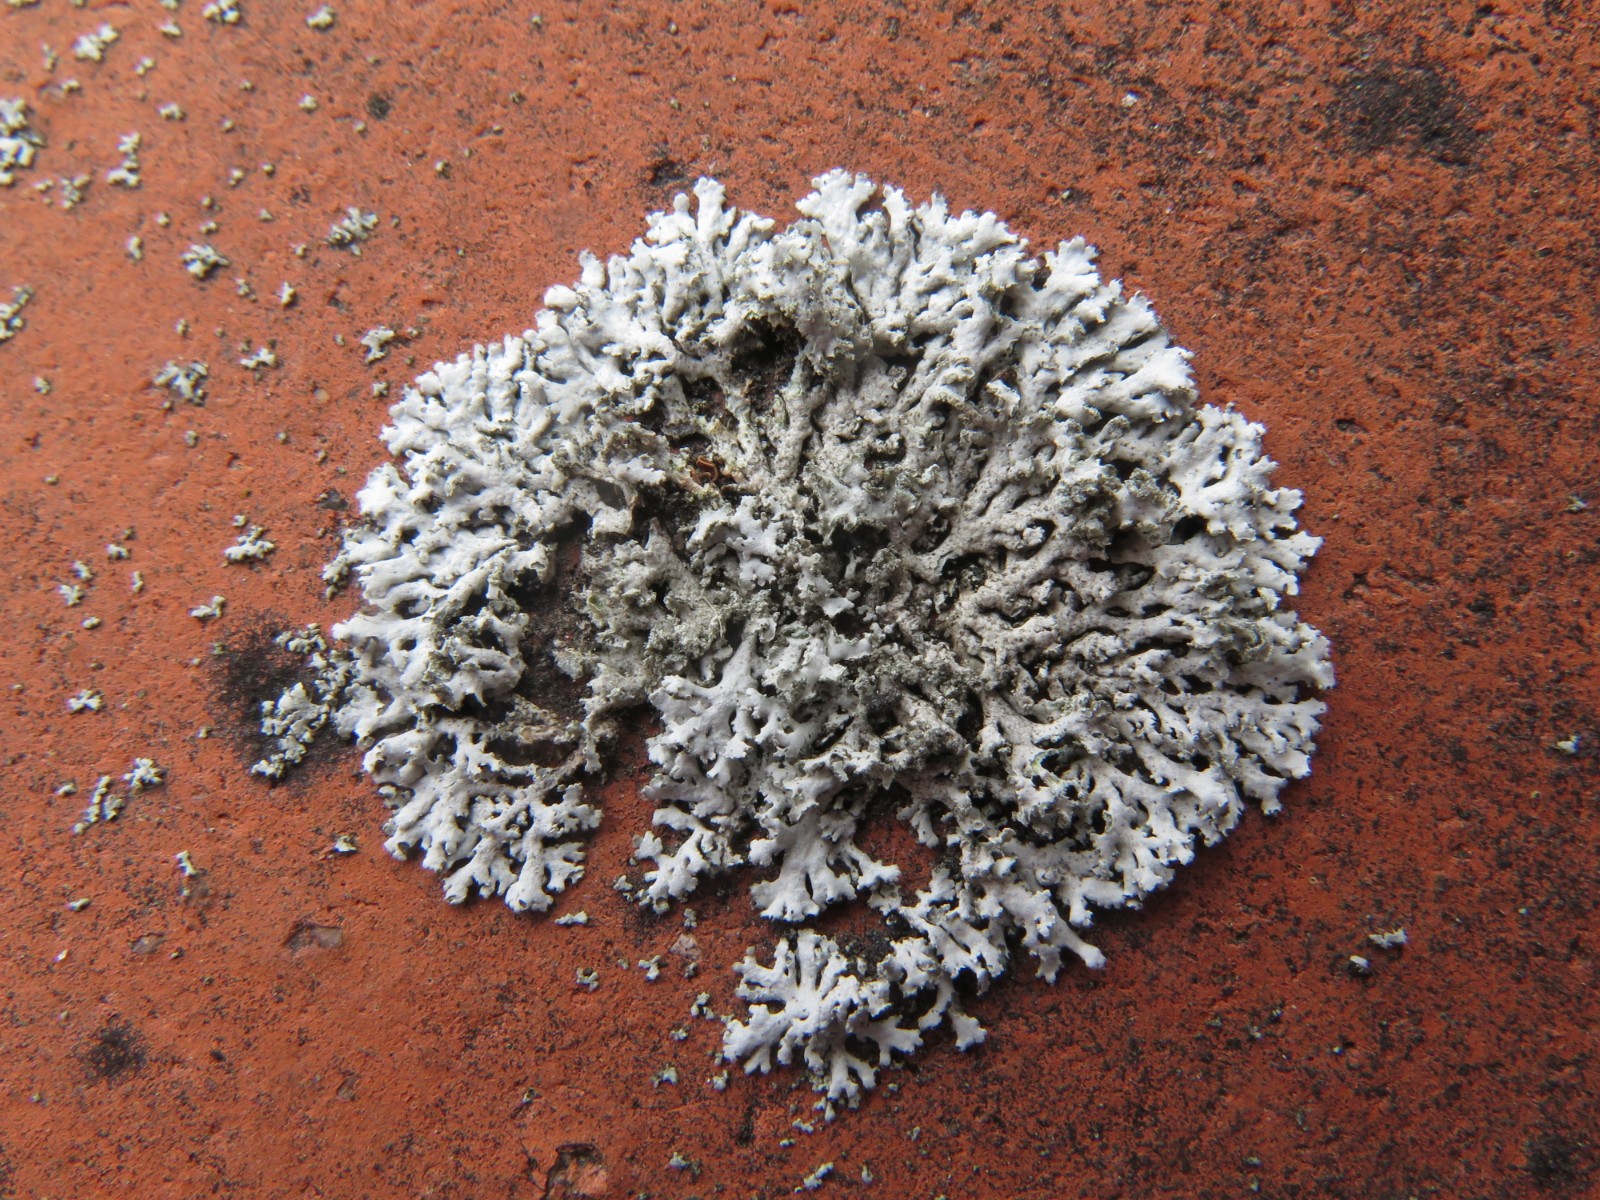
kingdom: Fungi
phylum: Ascomycota
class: Lecanoromycetes
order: Caliciales
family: Physciaceae
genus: Physcia
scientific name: Physcia dubia
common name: fuglestens-rosetlav
